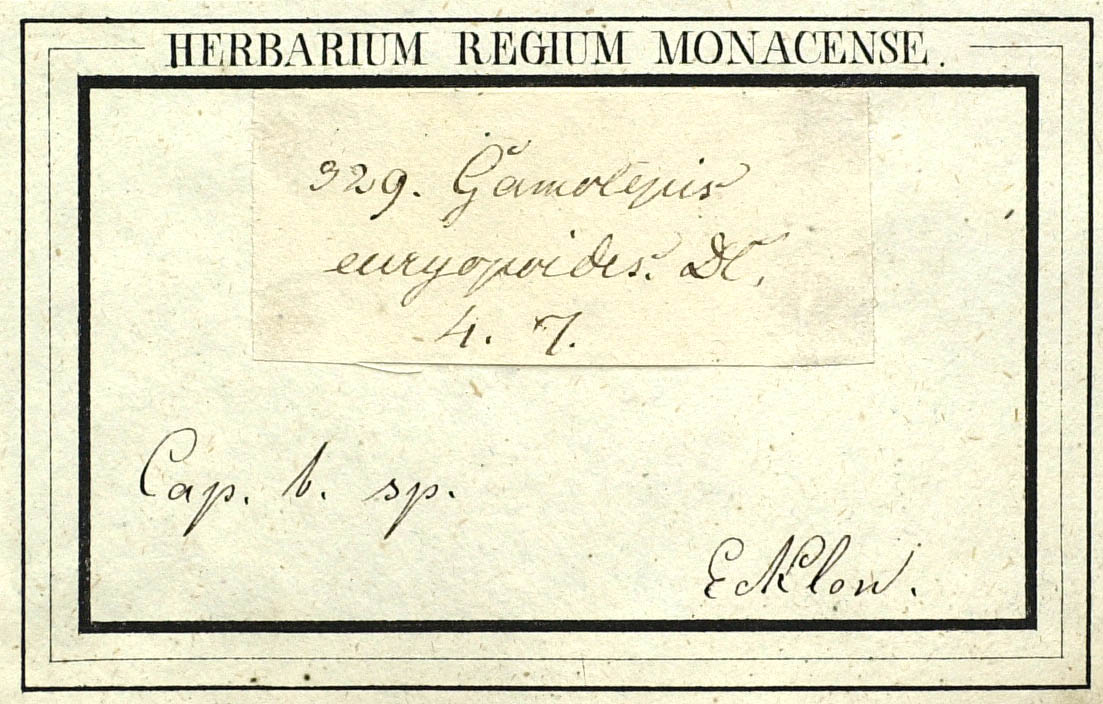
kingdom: Plantae
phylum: Tracheophyta
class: Magnoliopsida
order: Asterales
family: Asteraceae
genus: Euryops
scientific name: Euryops euryopoides
